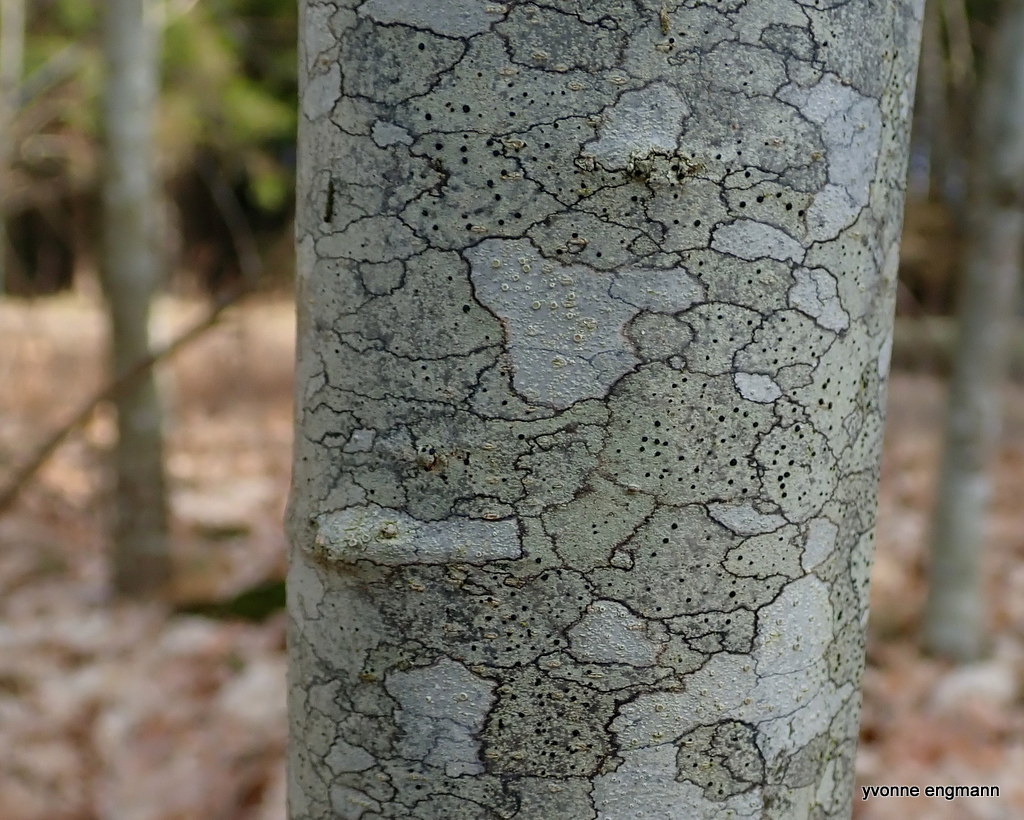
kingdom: Fungi
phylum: Ascomycota
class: Lecanoromycetes
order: Lecanorales
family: Lecanoraceae
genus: Lecidella
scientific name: Lecidella elaeochroma
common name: grågrøn skivelav
